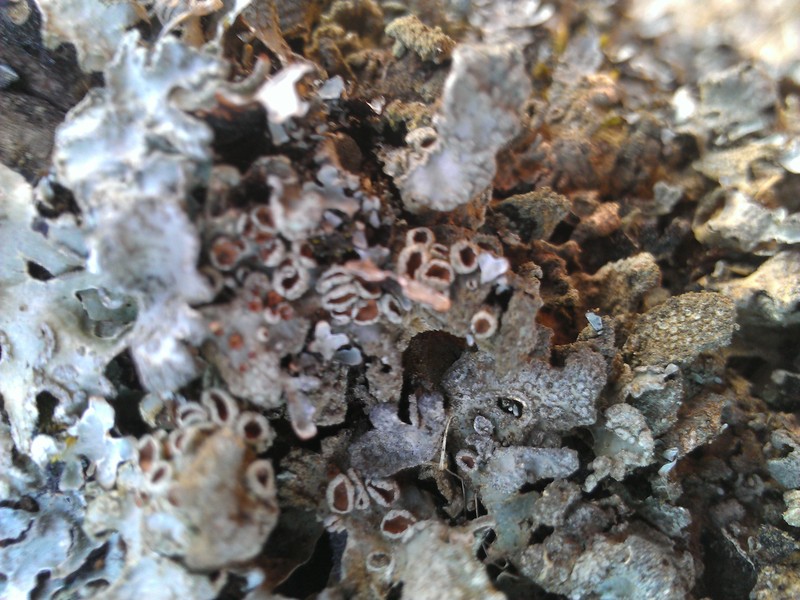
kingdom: Fungi
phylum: Ascomycota
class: Lecanoromycetes
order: Lecanorales
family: Parmeliaceae
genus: Parmelia
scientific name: Parmelia sulcata
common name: Netted shield lichen
